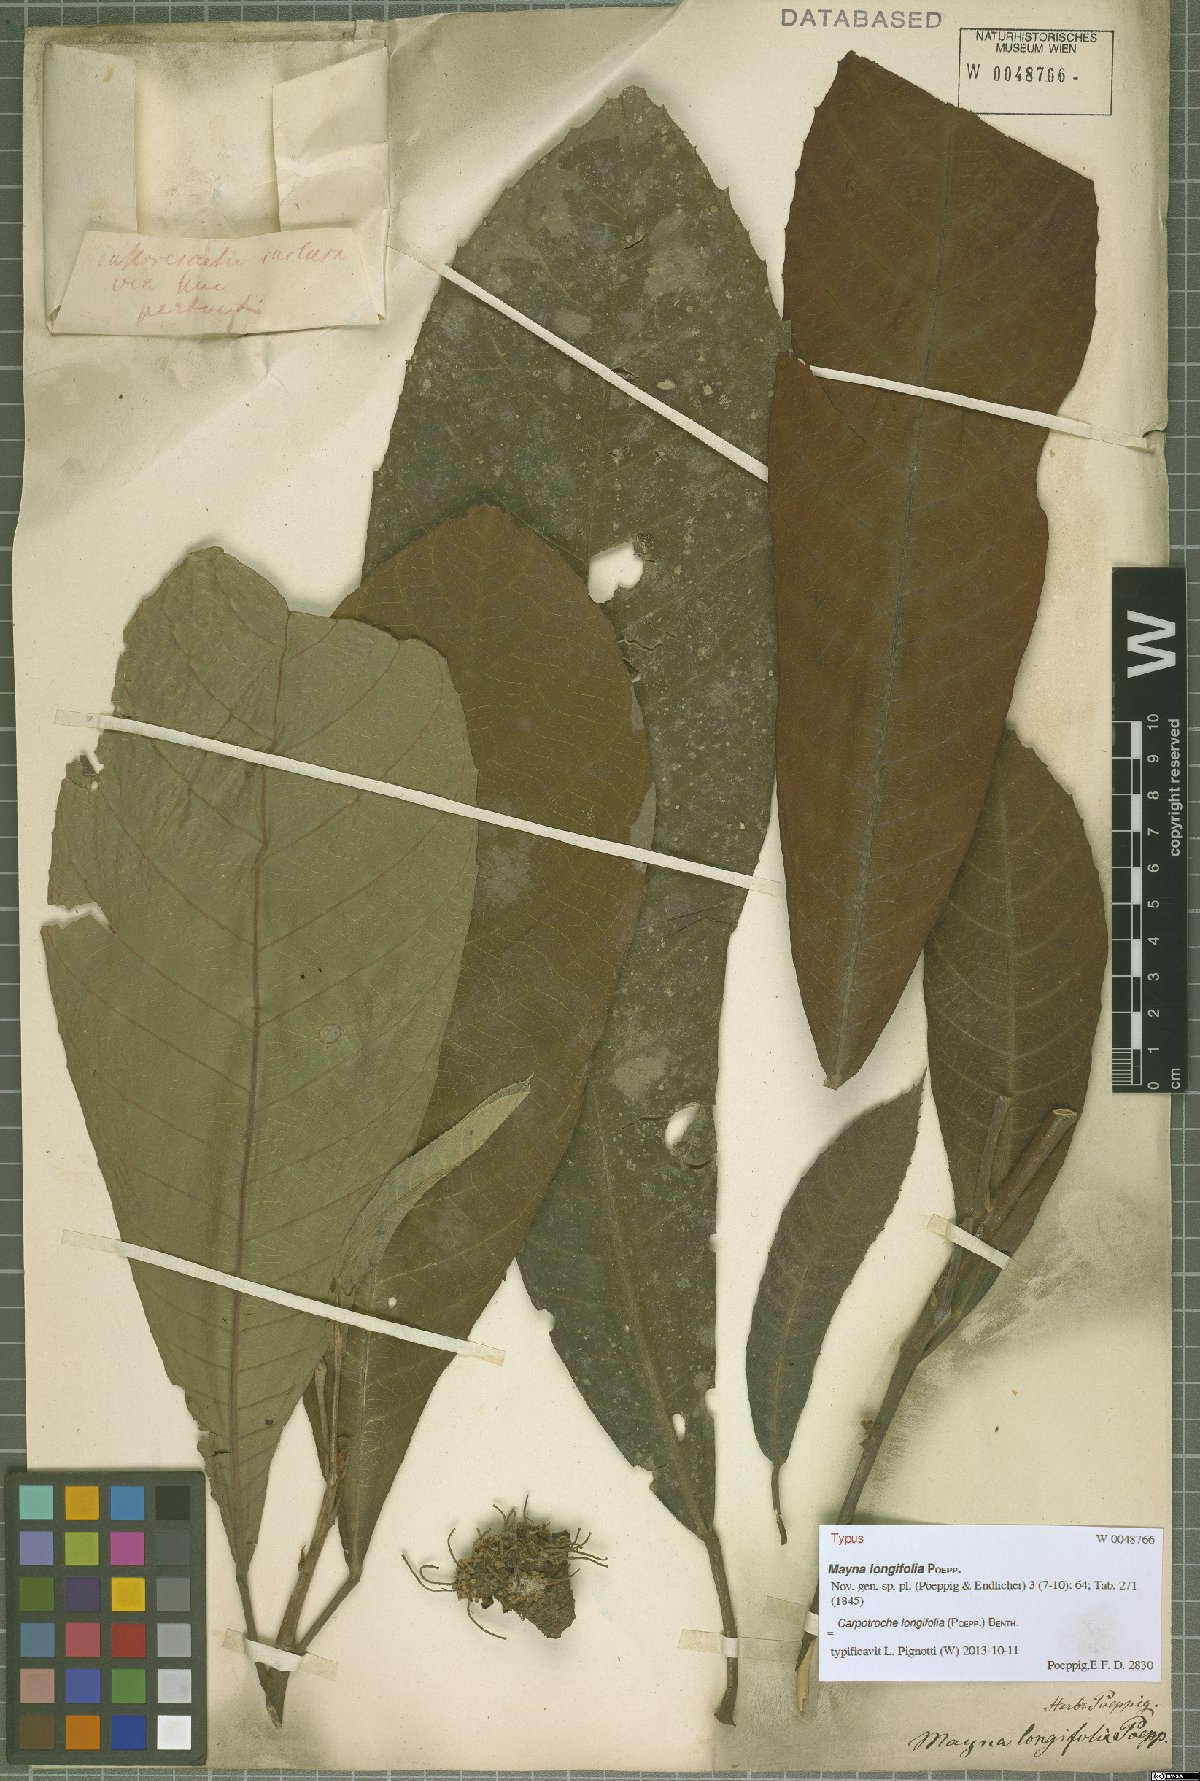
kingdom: Plantae
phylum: Tracheophyta
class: Magnoliopsida
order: Malpighiales
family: Achariaceae
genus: Carpotroche
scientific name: Carpotroche longifolia
